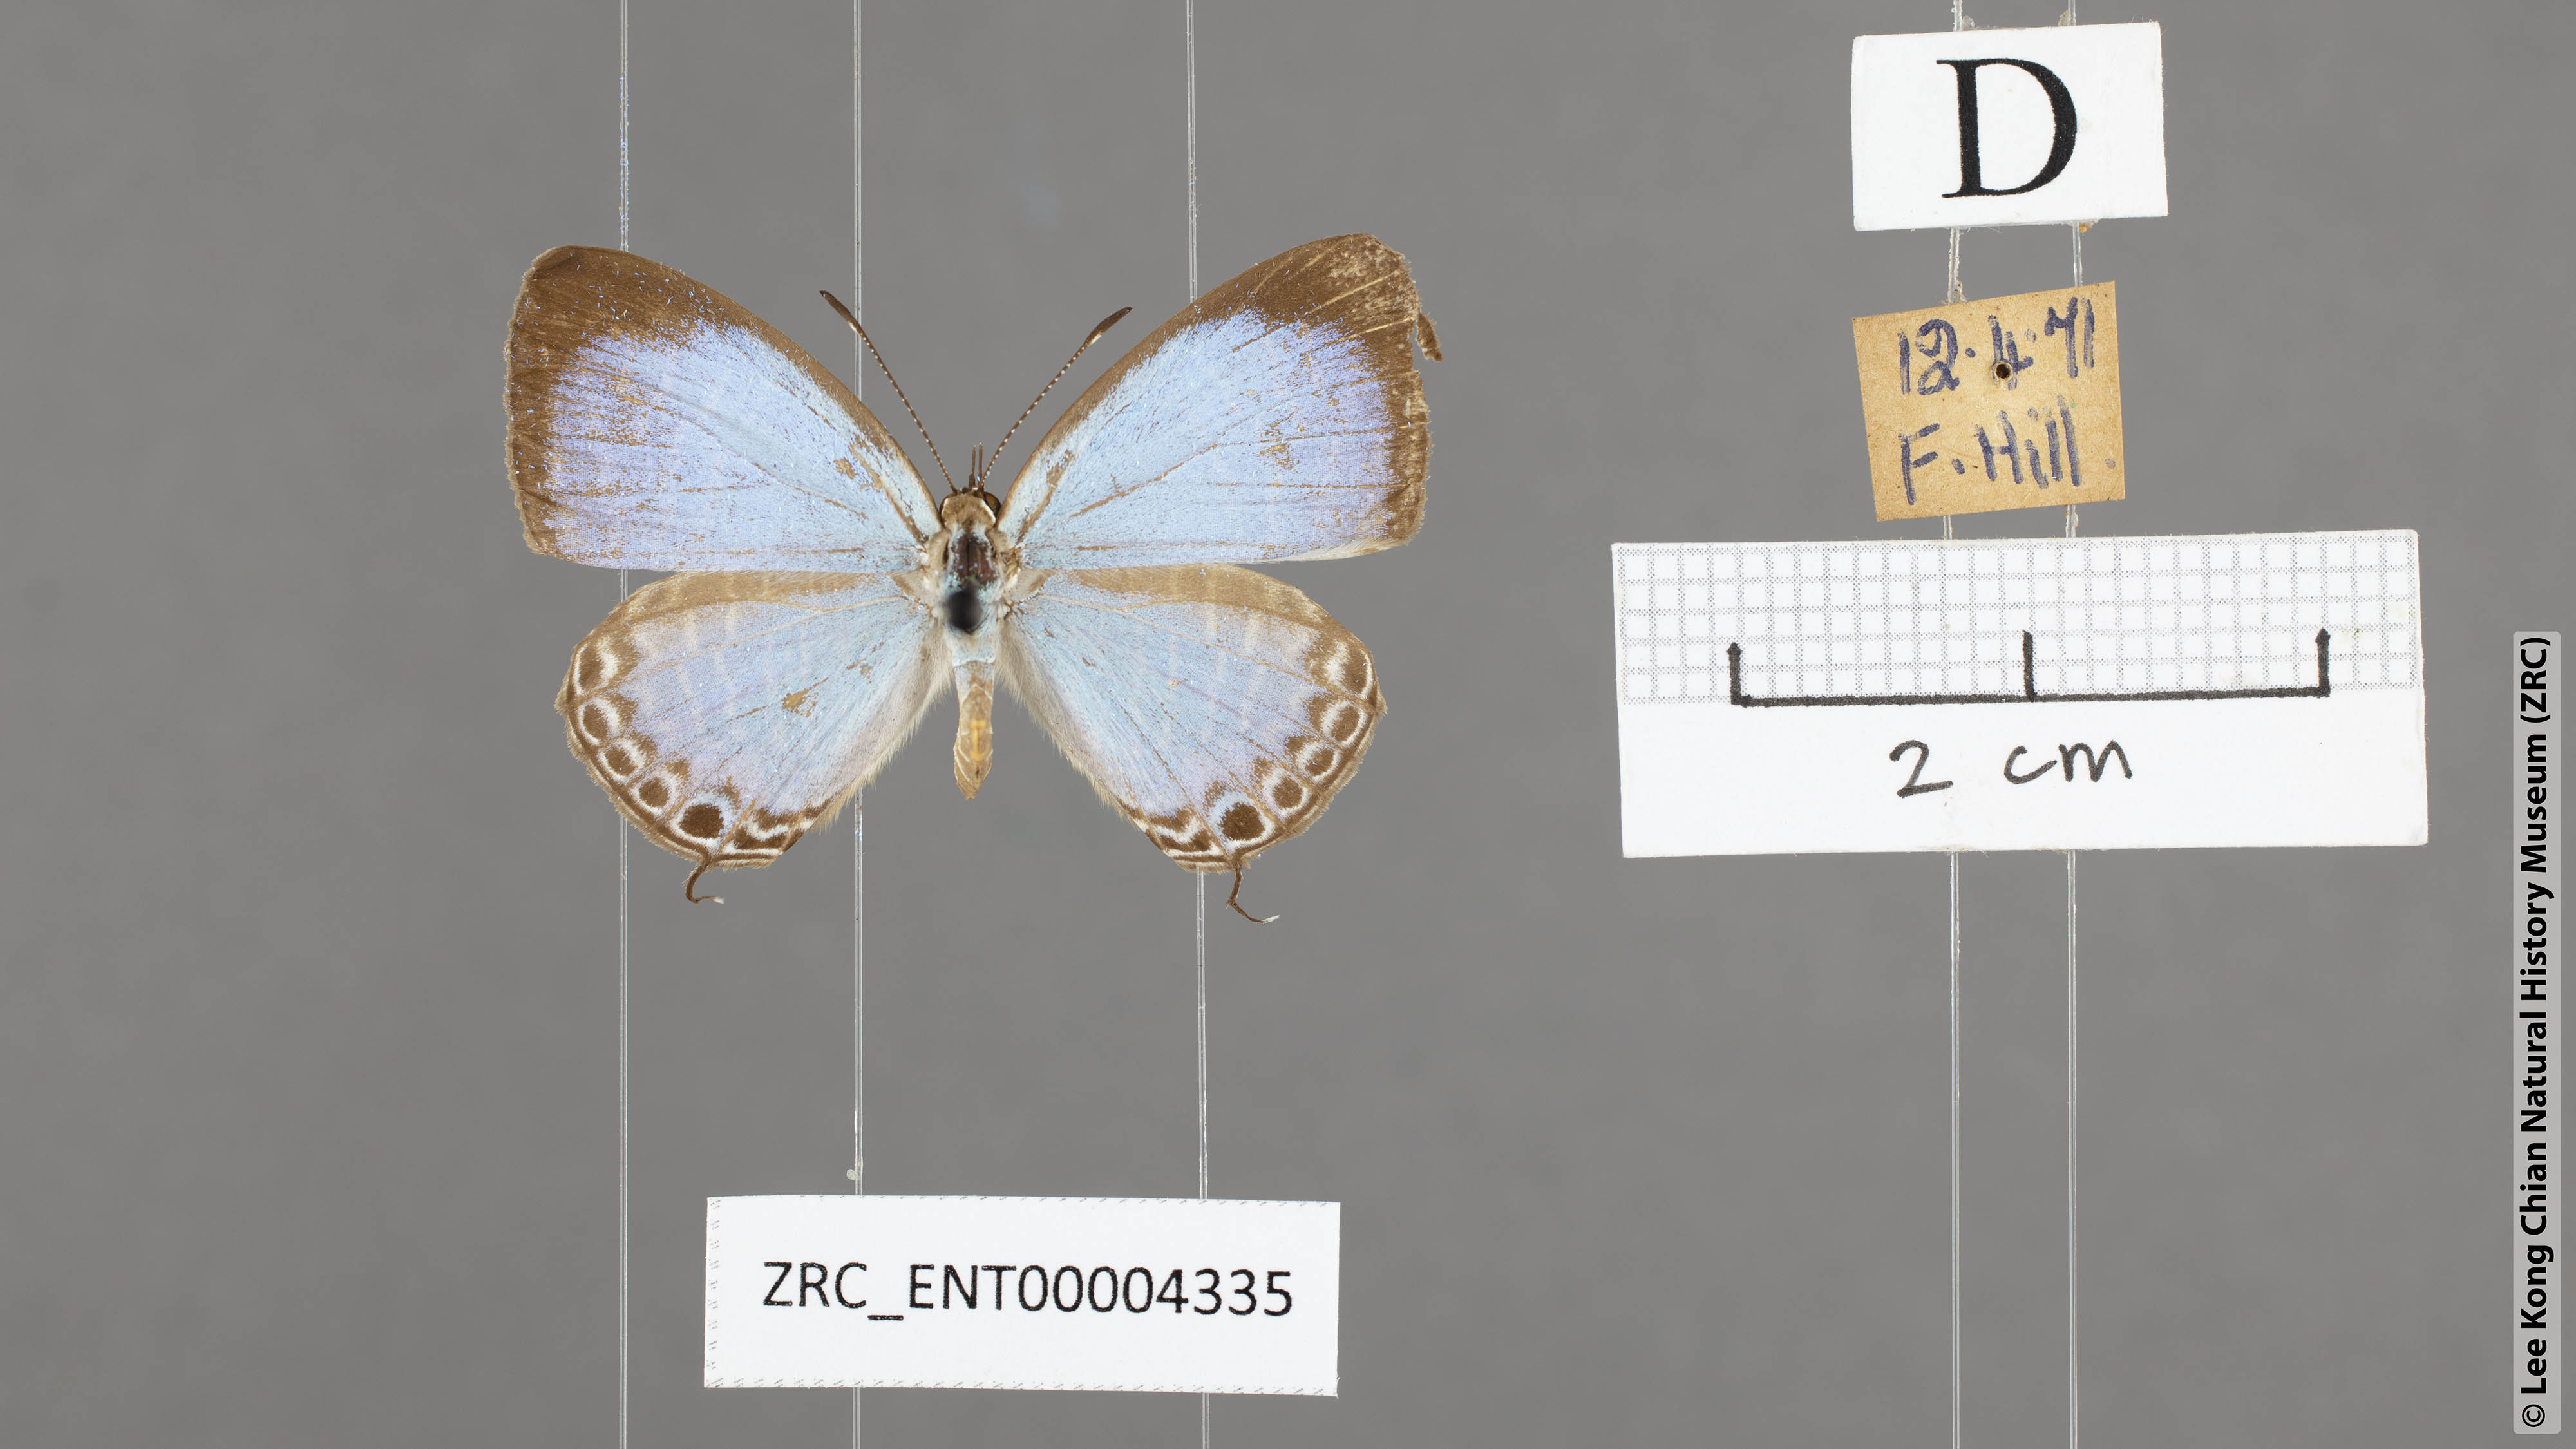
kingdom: Animalia
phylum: Arthropoda
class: Insecta
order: Lepidoptera
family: Lycaenidae
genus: Jamides
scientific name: Jamides elpis
